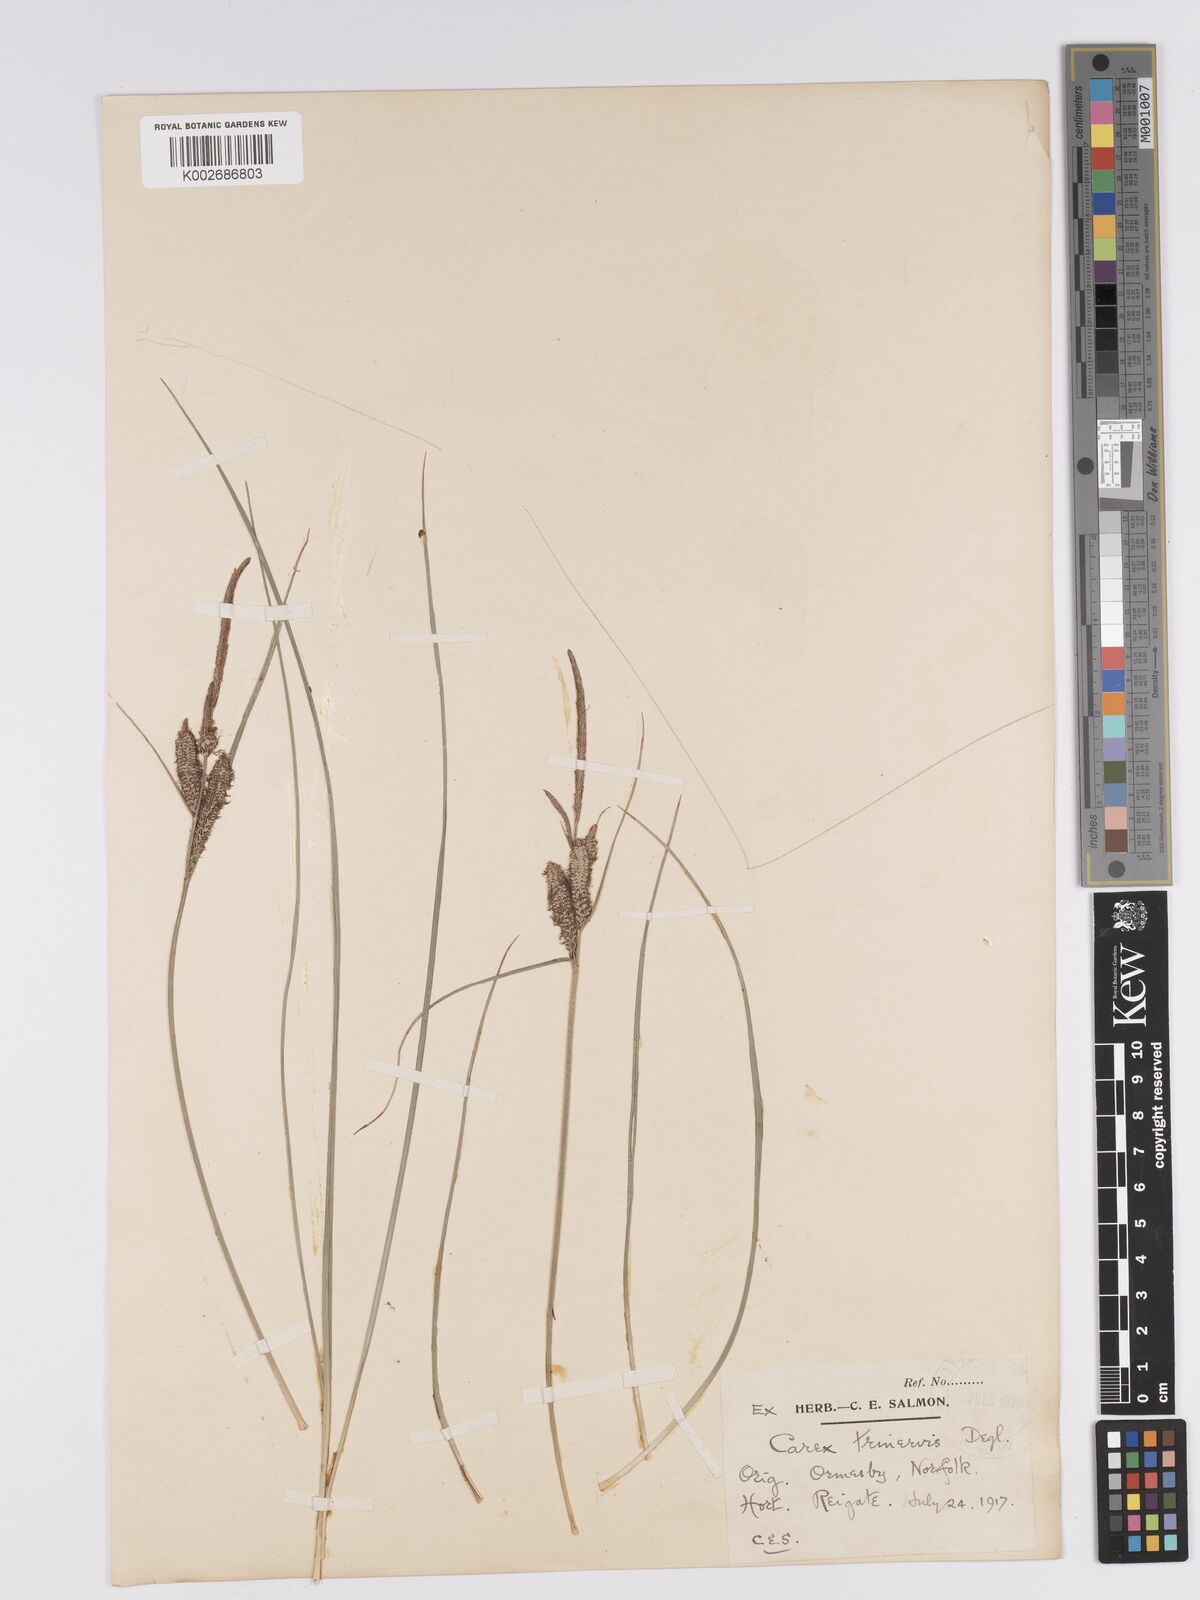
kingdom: Plantae
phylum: Tracheophyta
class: Liliopsida
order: Poales
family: Cyperaceae
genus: Carex
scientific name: Carex trinervis
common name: Three-nerved sedge
